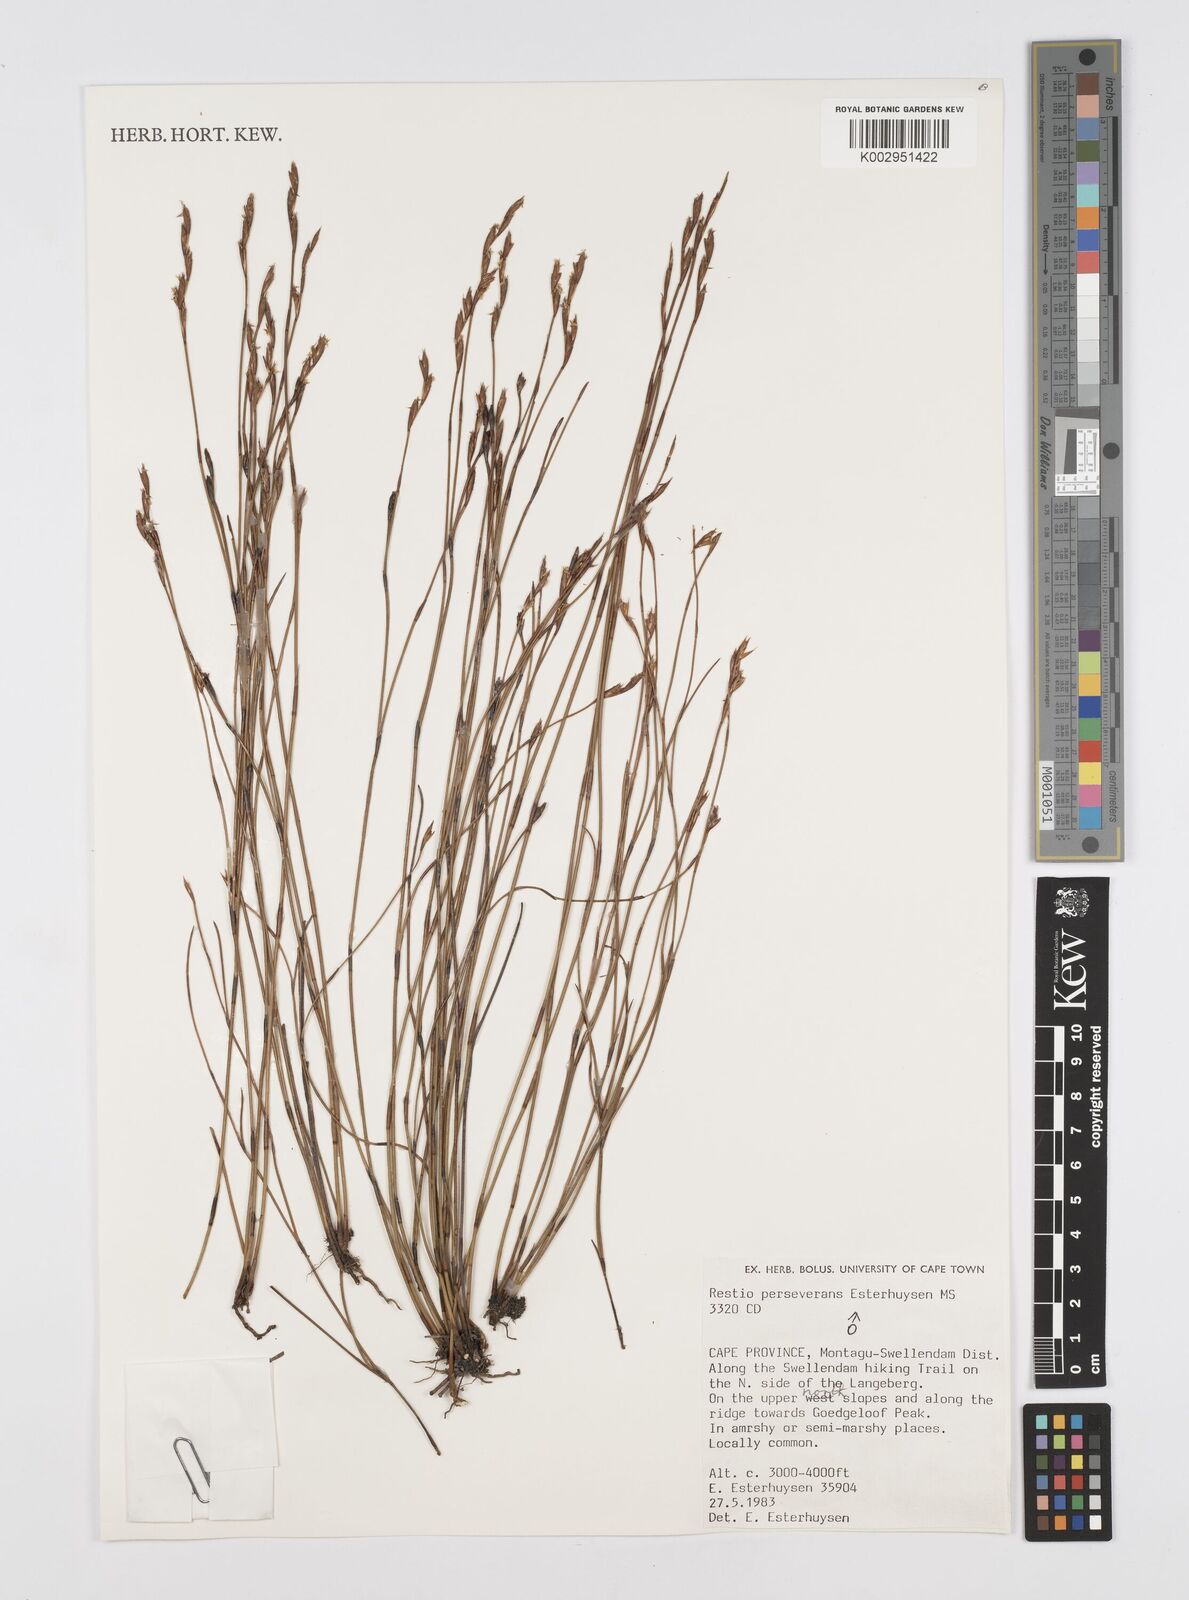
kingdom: Plantae
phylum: Tracheophyta
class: Liliopsida
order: Poales
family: Restionaceae
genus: Restio
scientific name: Restio perseverans
